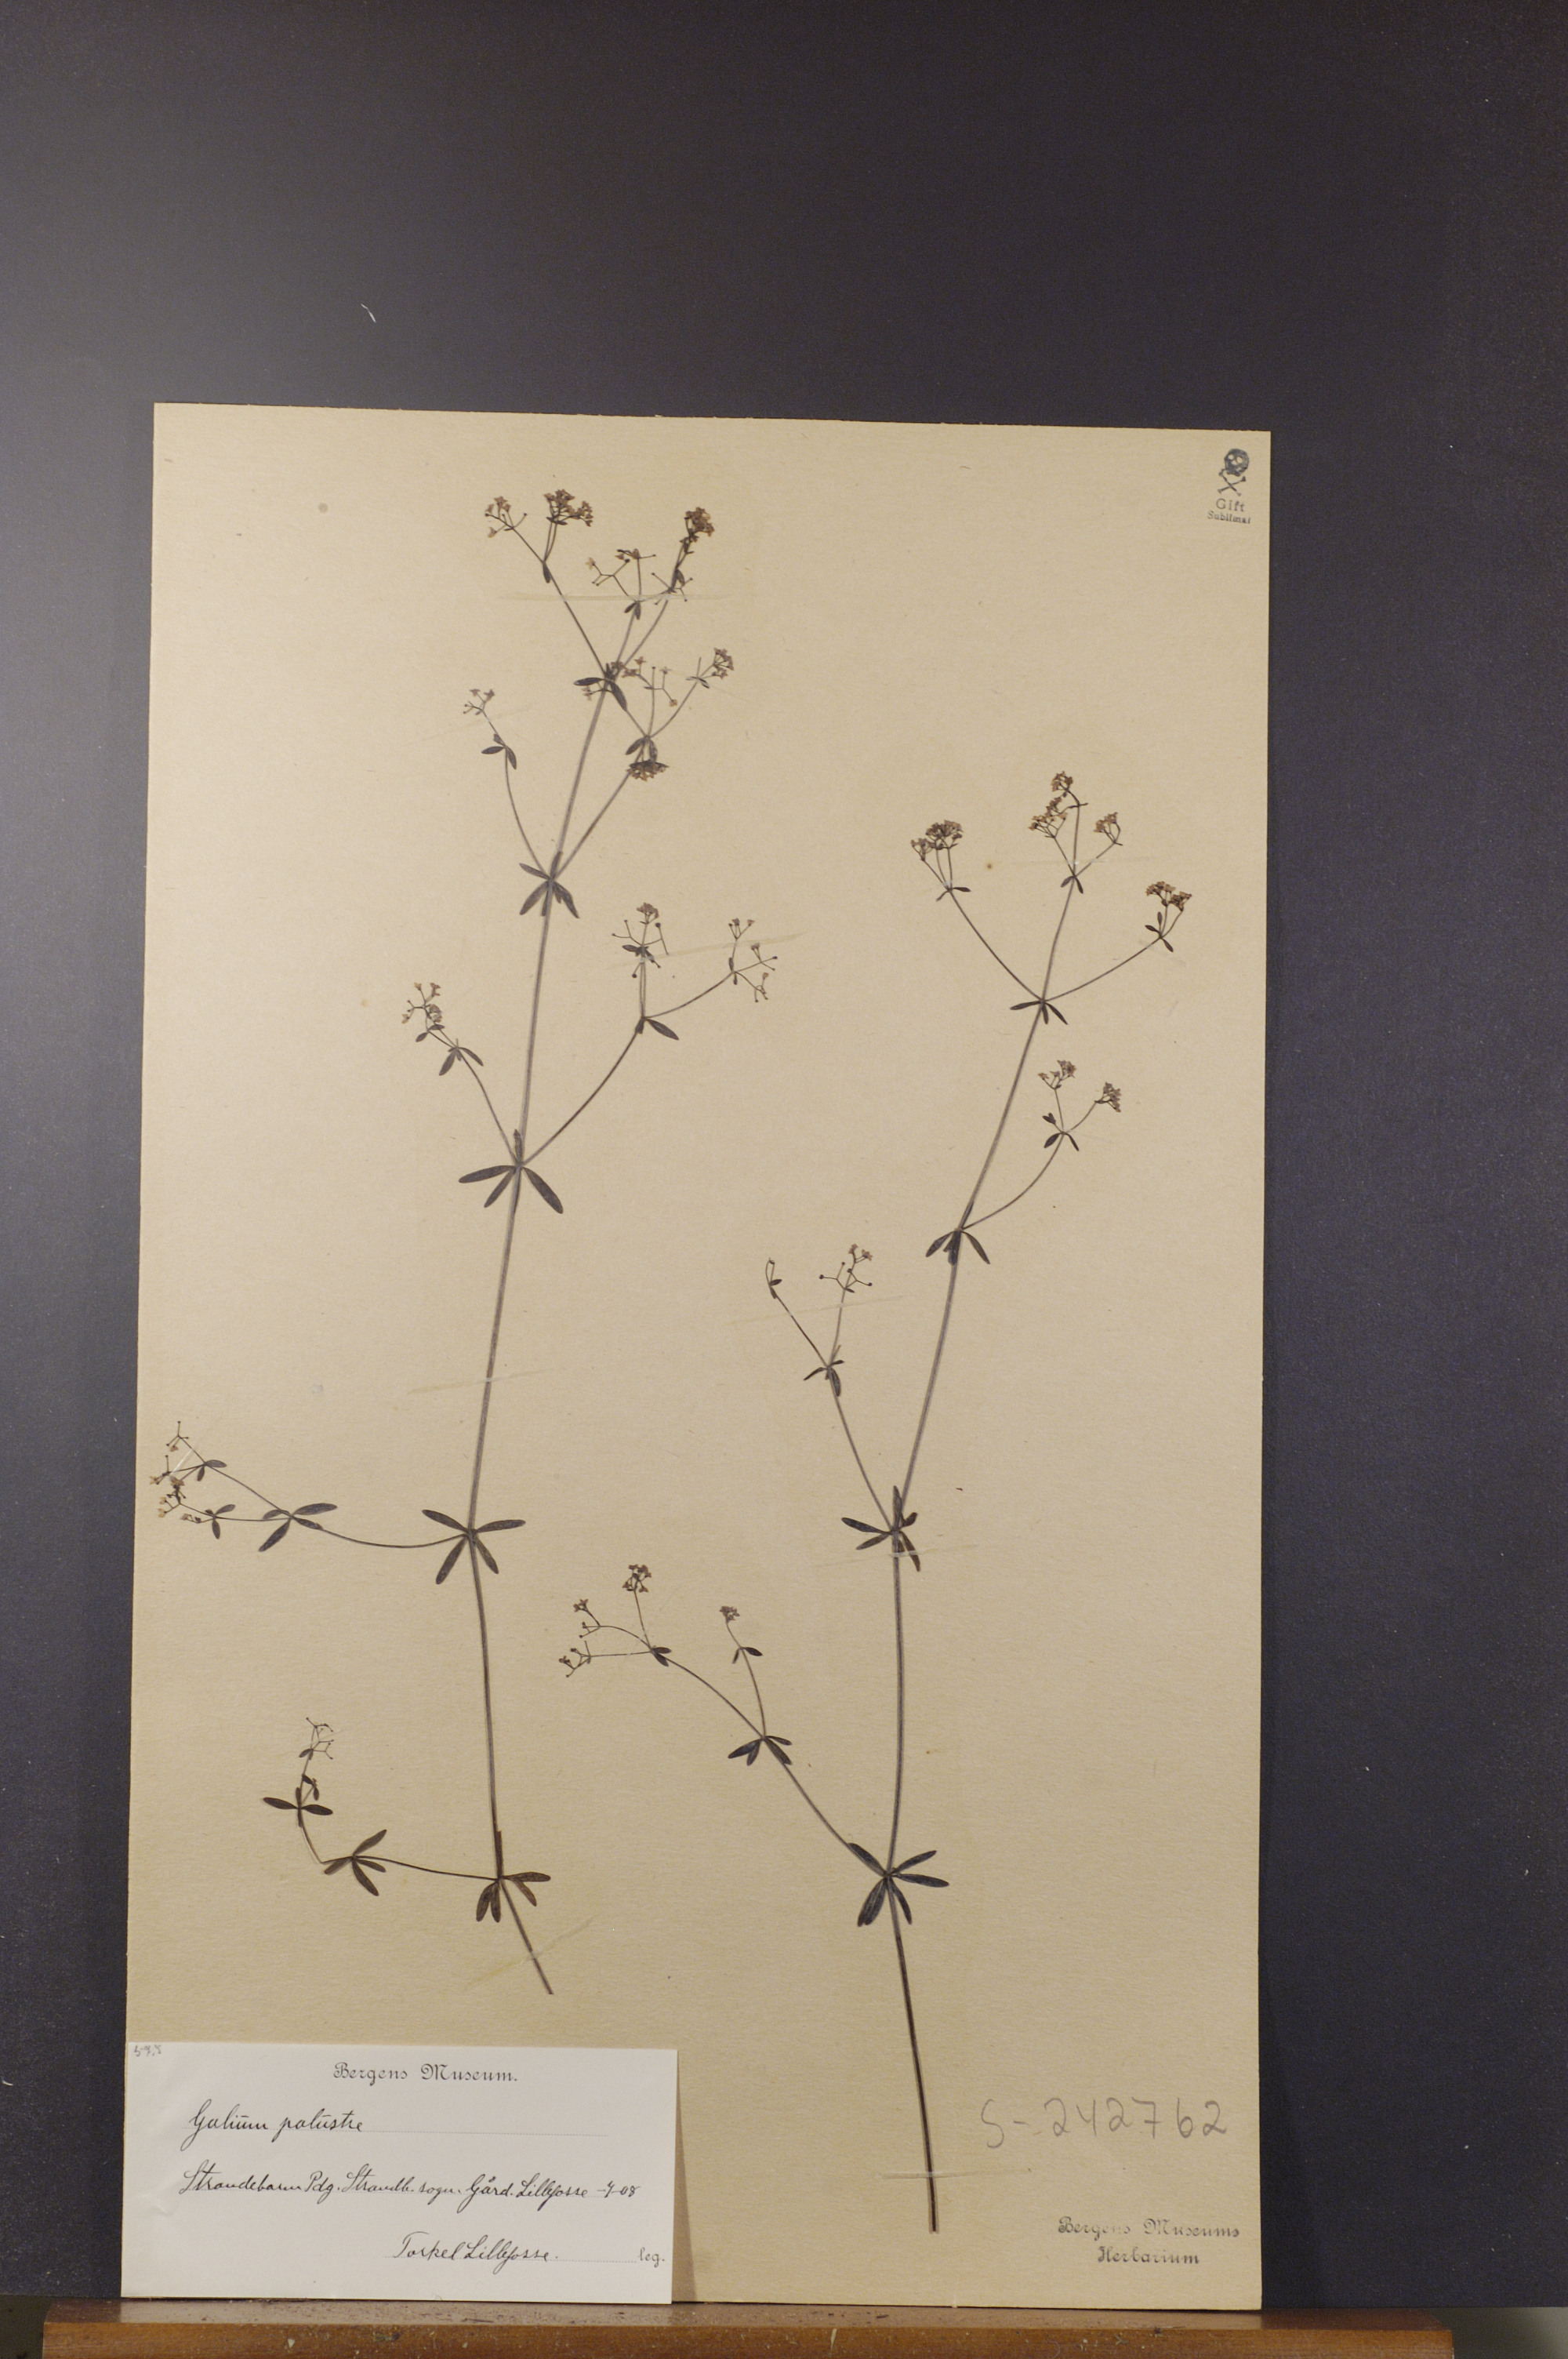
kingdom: Plantae
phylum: Tracheophyta
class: Magnoliopsida
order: Gentianales
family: Rubiaceae
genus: Galium
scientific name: Galium palustre
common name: Common marsh-bedstraw
